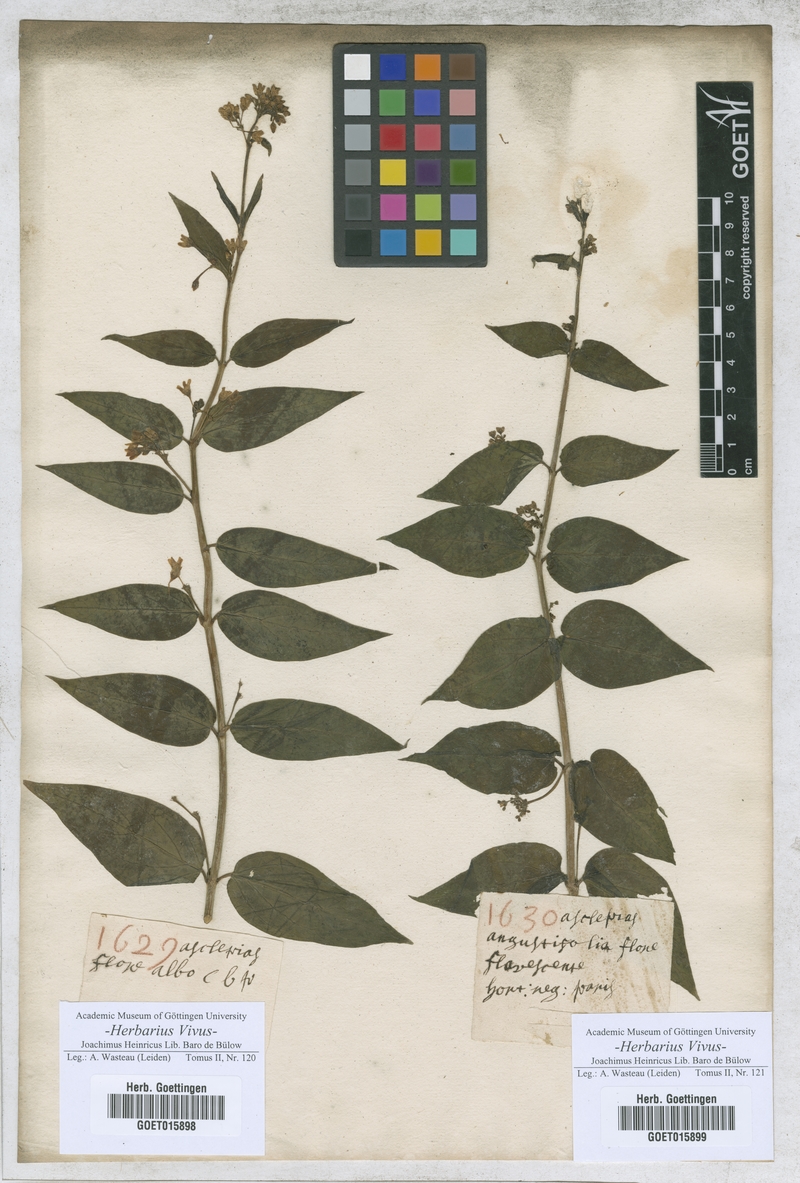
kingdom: Plantae
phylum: Tracheophyta
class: Magnoliopsida
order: Gentianales
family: Apocynaceae
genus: Asclepias
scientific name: Asclepias
